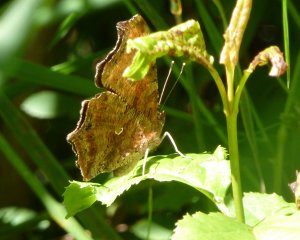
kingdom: Animalia
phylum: Arthropoda
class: Insecta
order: Lepidoptera
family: Nymphalidae
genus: Polygonia
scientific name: Polygonia comma
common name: Eastern Comma
